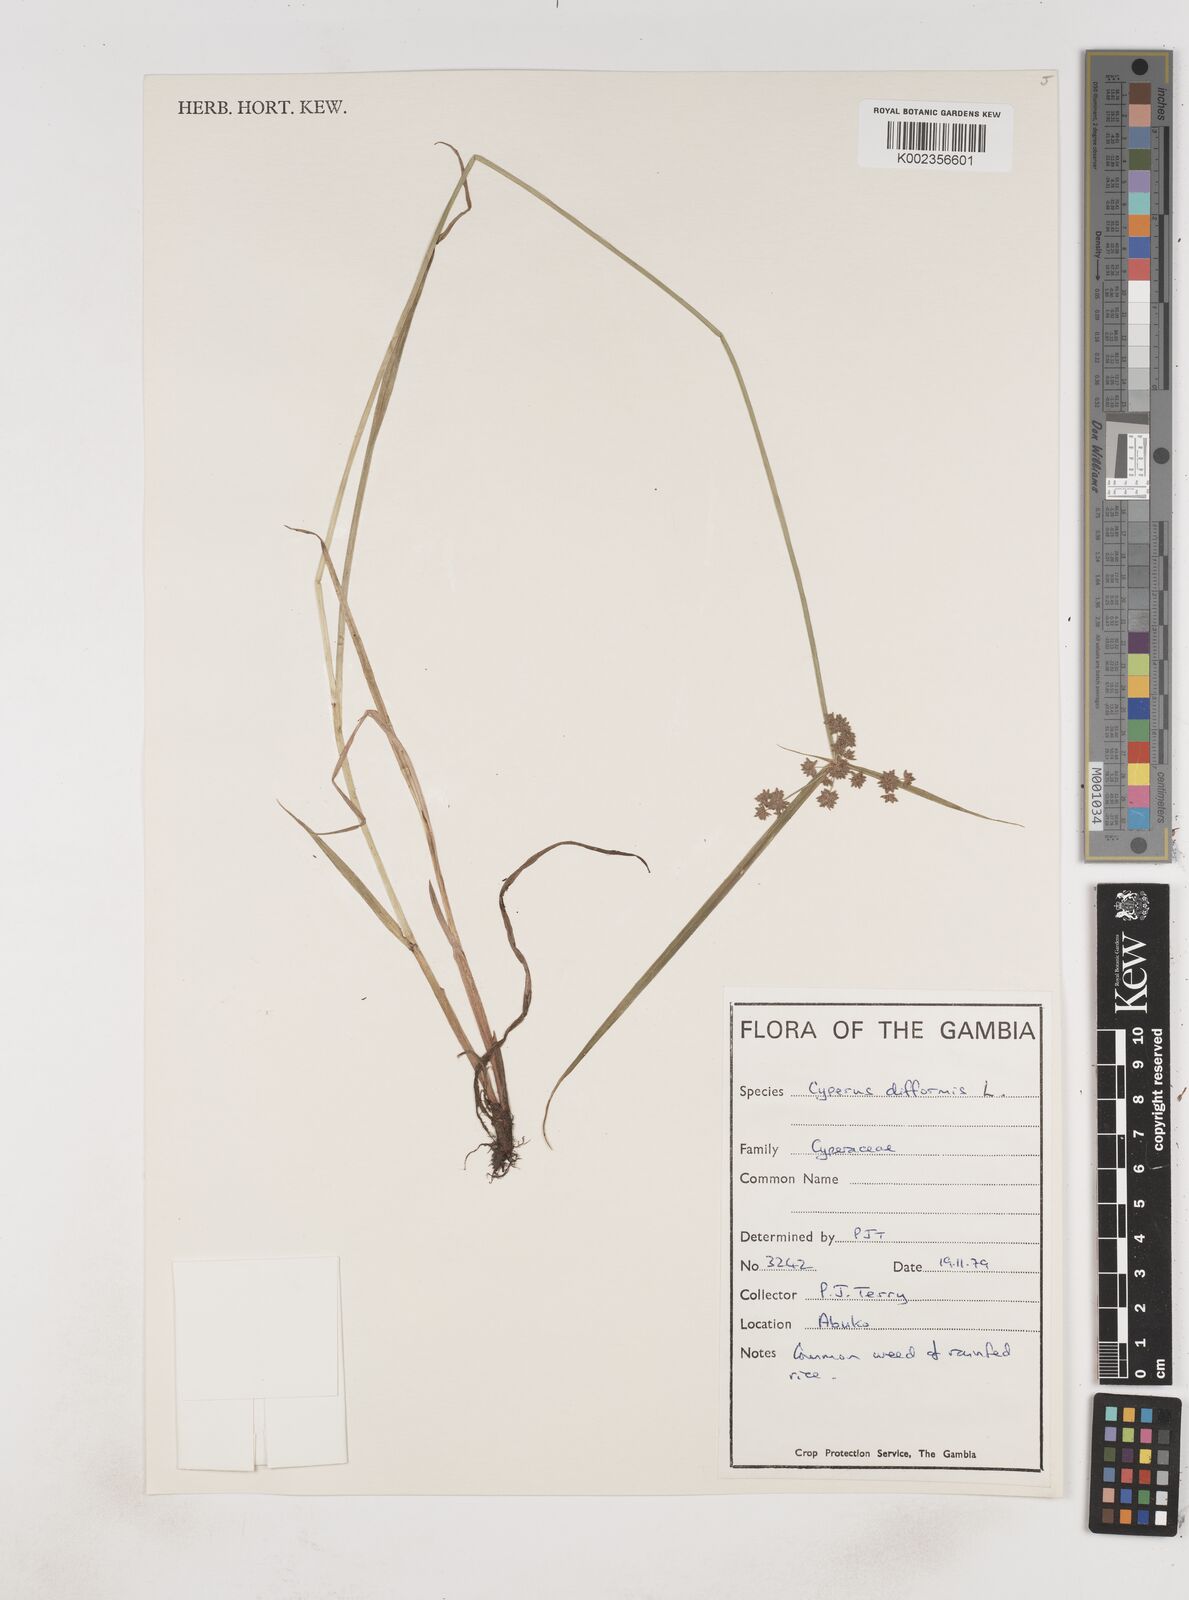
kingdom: Plantae
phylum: Tracheophyta
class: Liliopsida
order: Poales
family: Cyperaceae
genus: Cyperus
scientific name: Cyperus difformis
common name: Variable flatsedge
